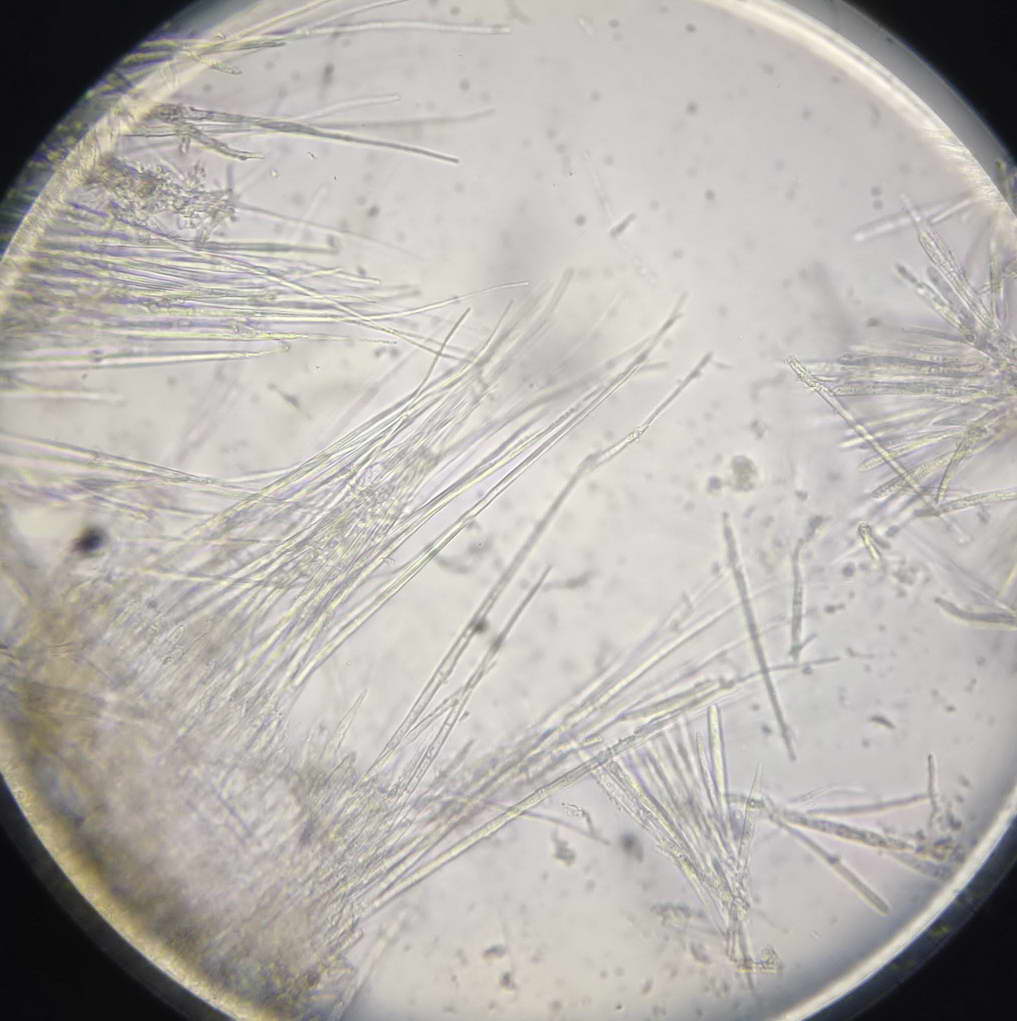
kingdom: Fungi
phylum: Ascomycota
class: Leotiomycetes
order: Helotiales
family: Lachnaceae
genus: Albotricha
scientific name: Albotricha albotestacea
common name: rosa frynseskive
